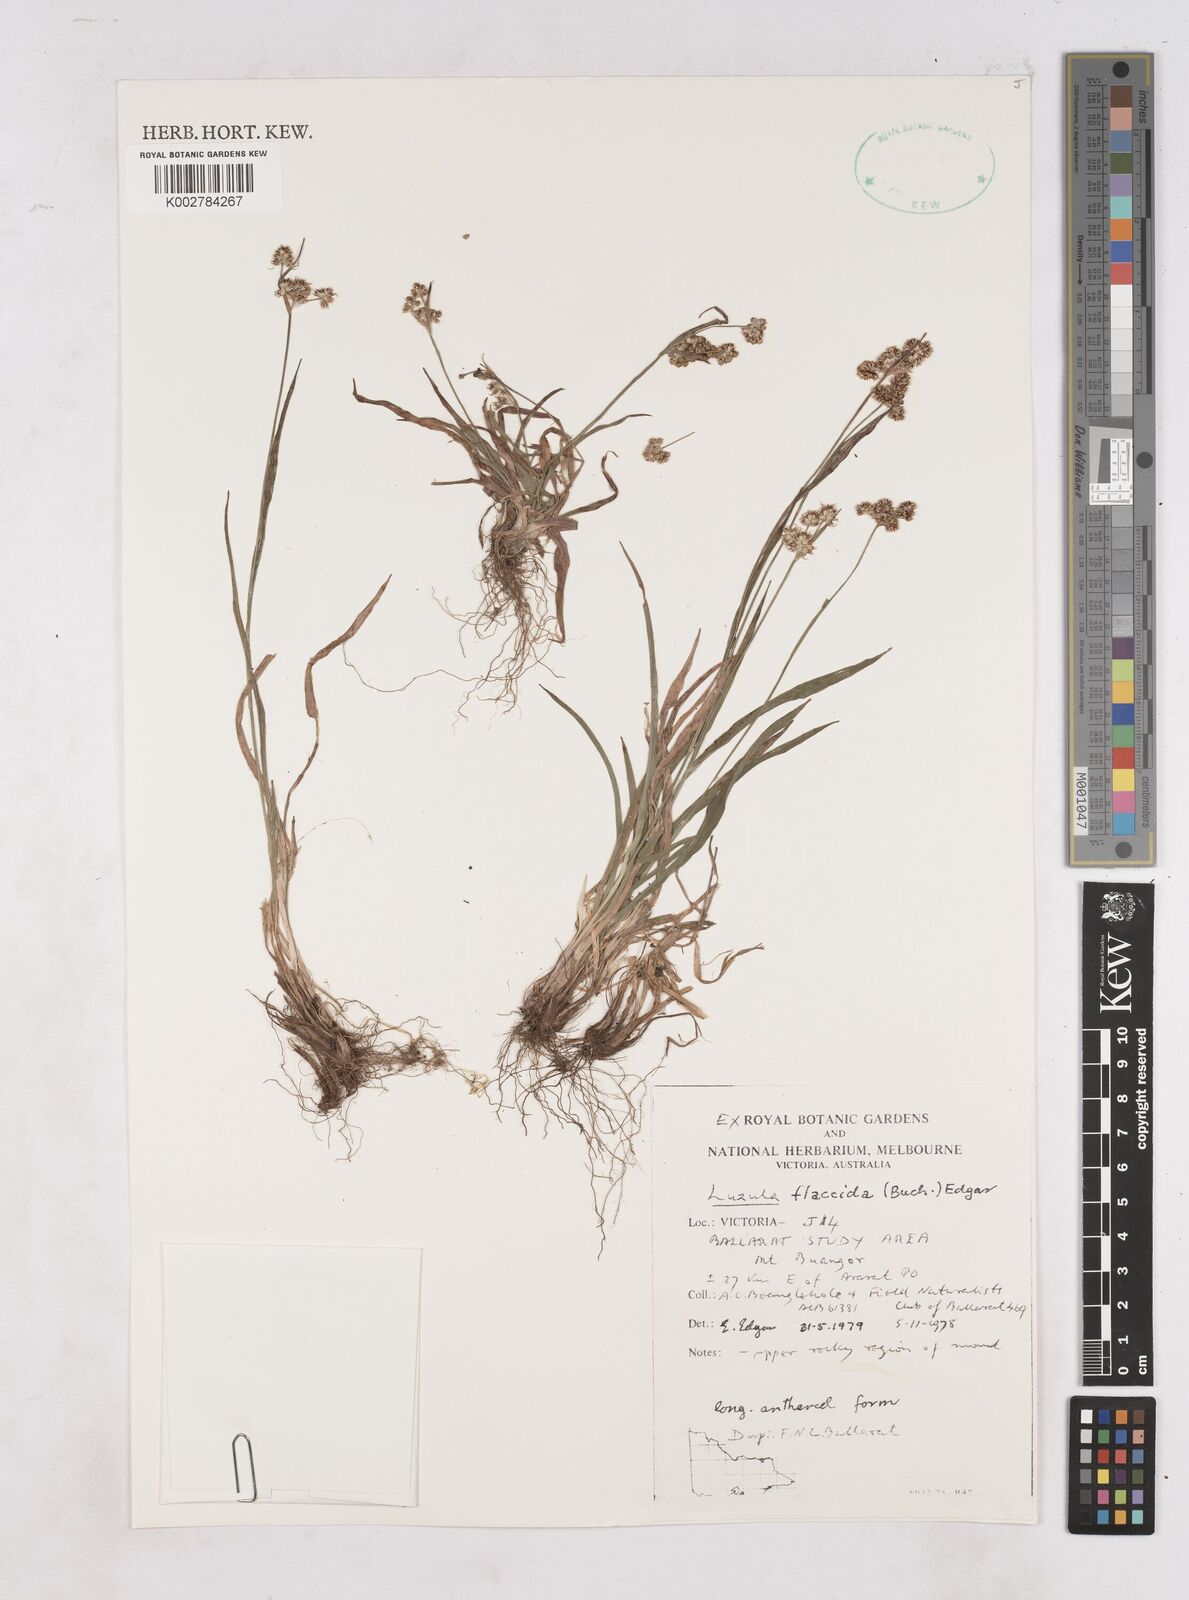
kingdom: Plantae
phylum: Tracheophyta
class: Liliopsida
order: Poales
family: Juncaceae
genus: Luzula
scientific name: Luzula flaccida
